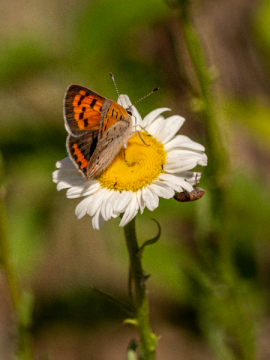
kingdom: Animalia
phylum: Arthropoda
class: Insecta
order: Lepidoptera
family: Lycaenidae
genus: Lycaena
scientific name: Lycaena phlaeas
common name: American Copper
